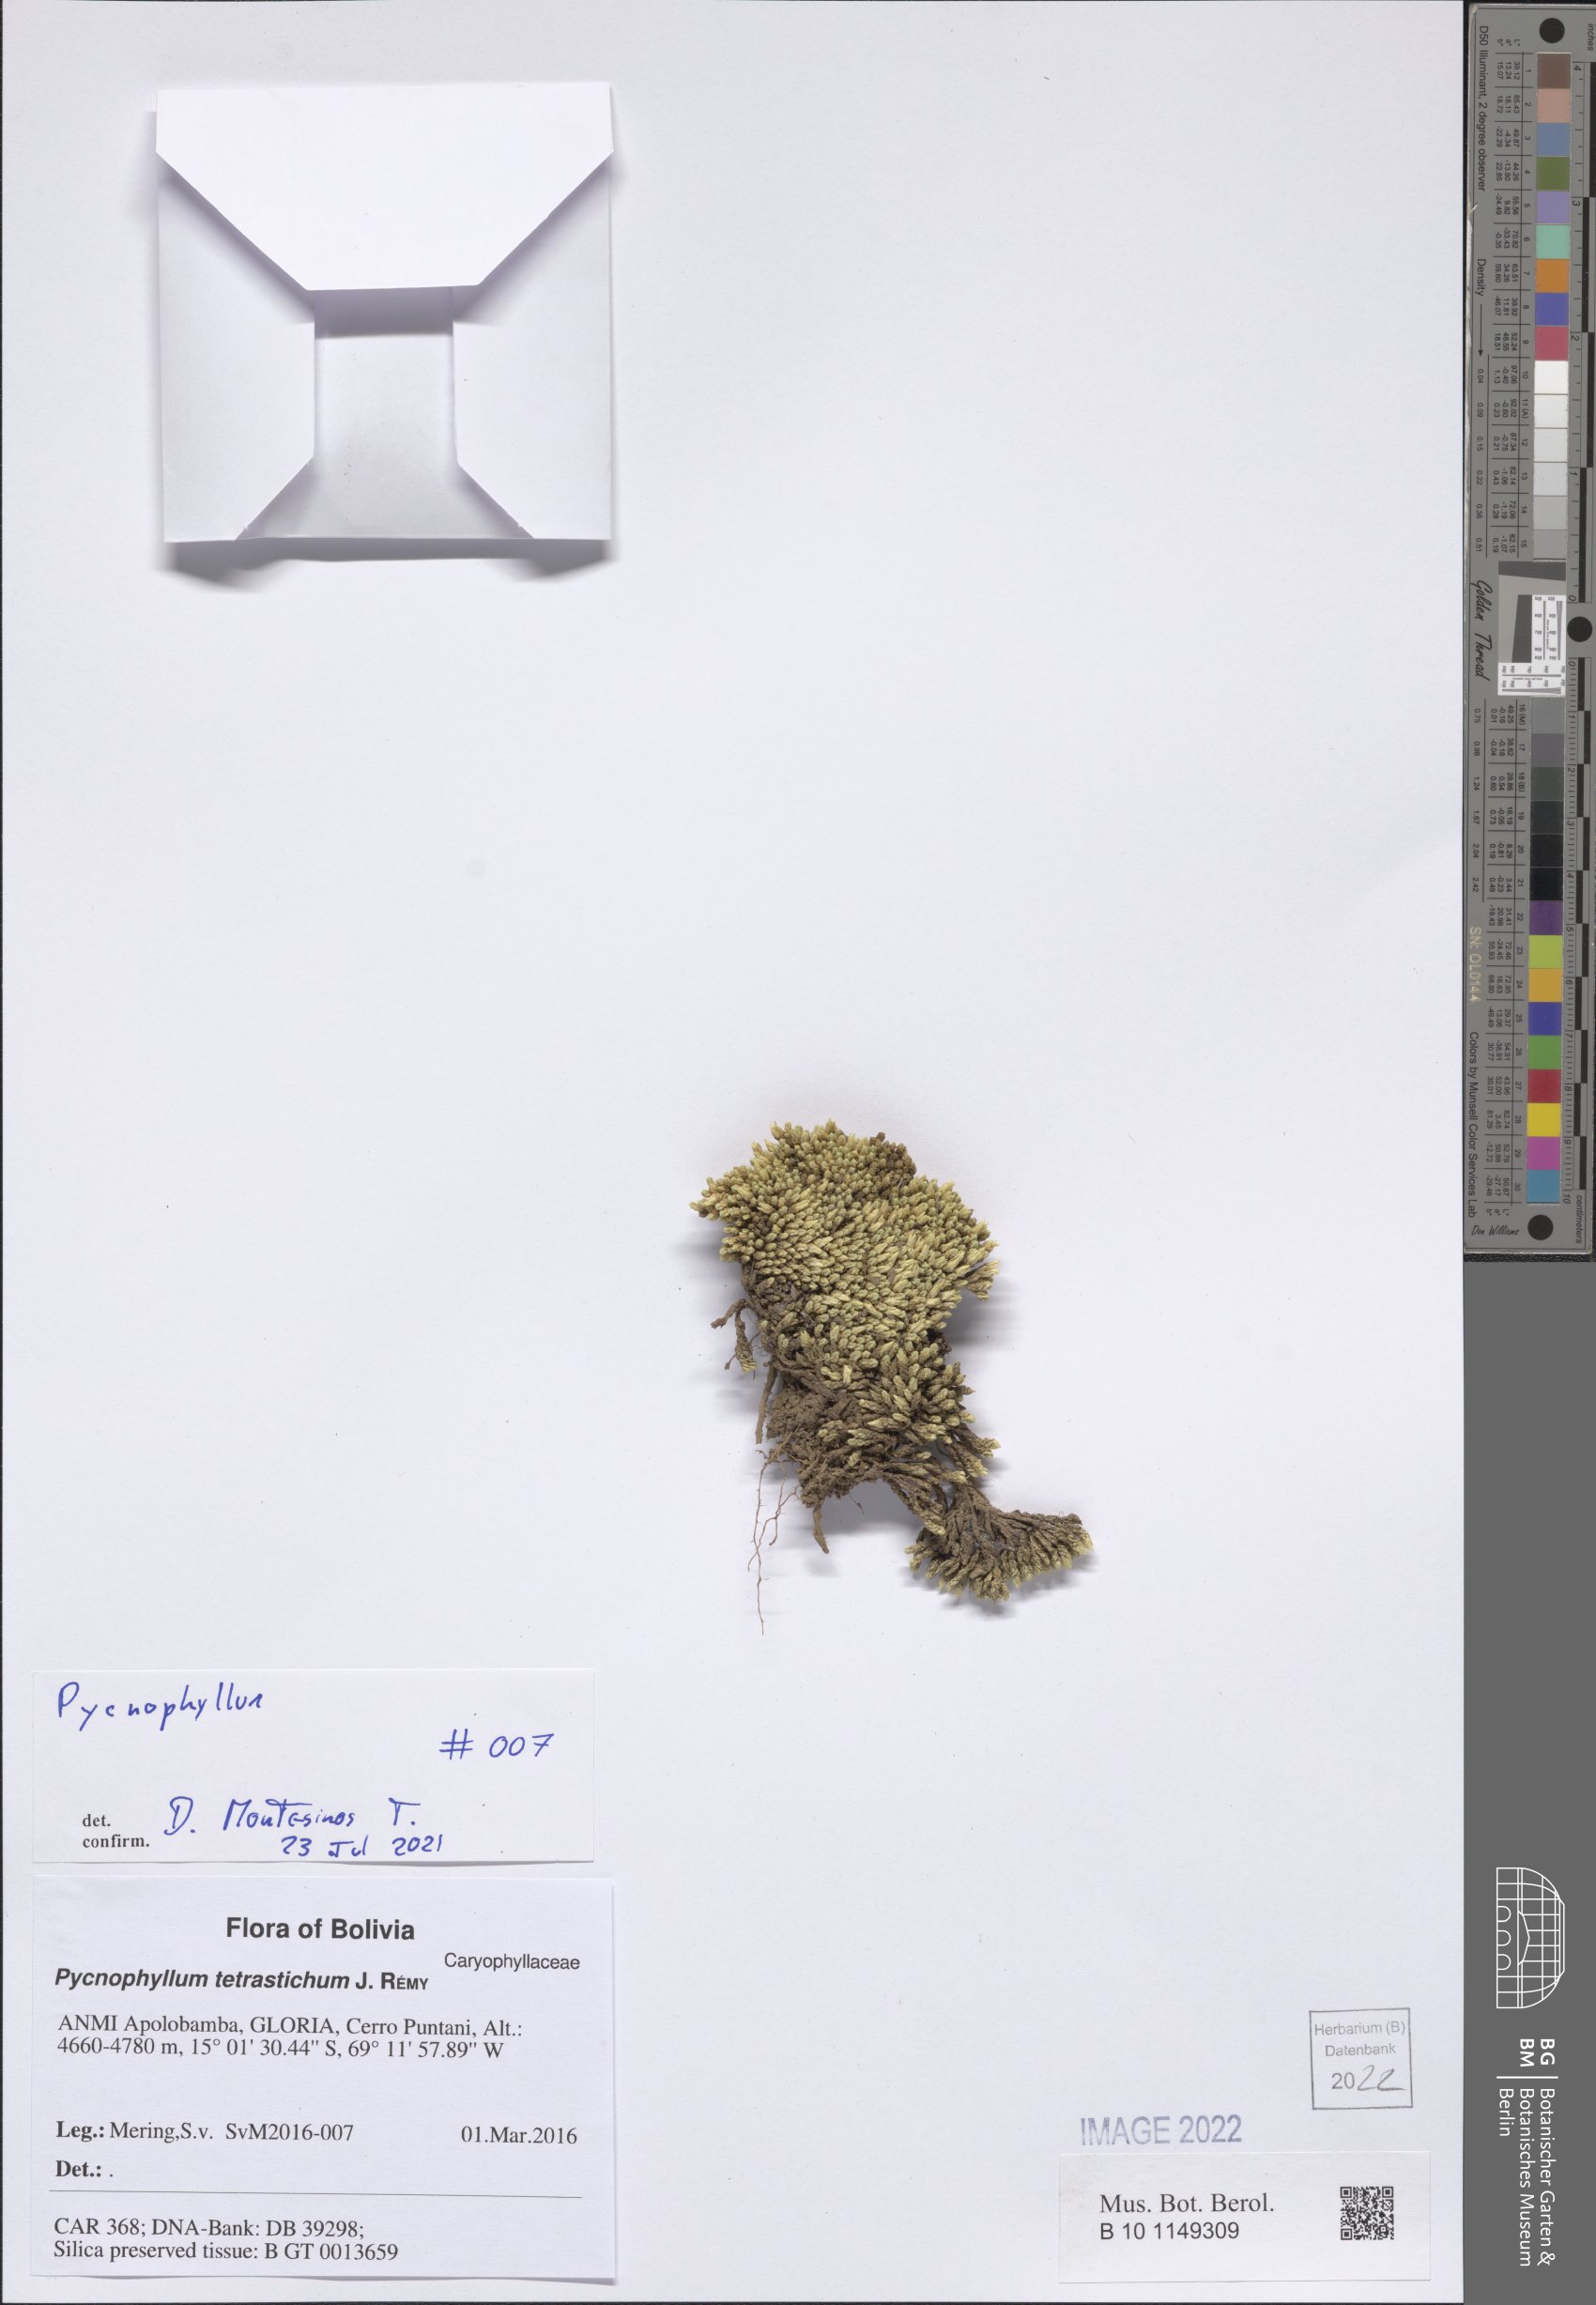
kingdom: Plantae
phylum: Tracheophyta
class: Magnoliopsida
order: Caryophyllales
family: Caryophyllaceae
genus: Pycnophyllum
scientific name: Pycnophyllum
